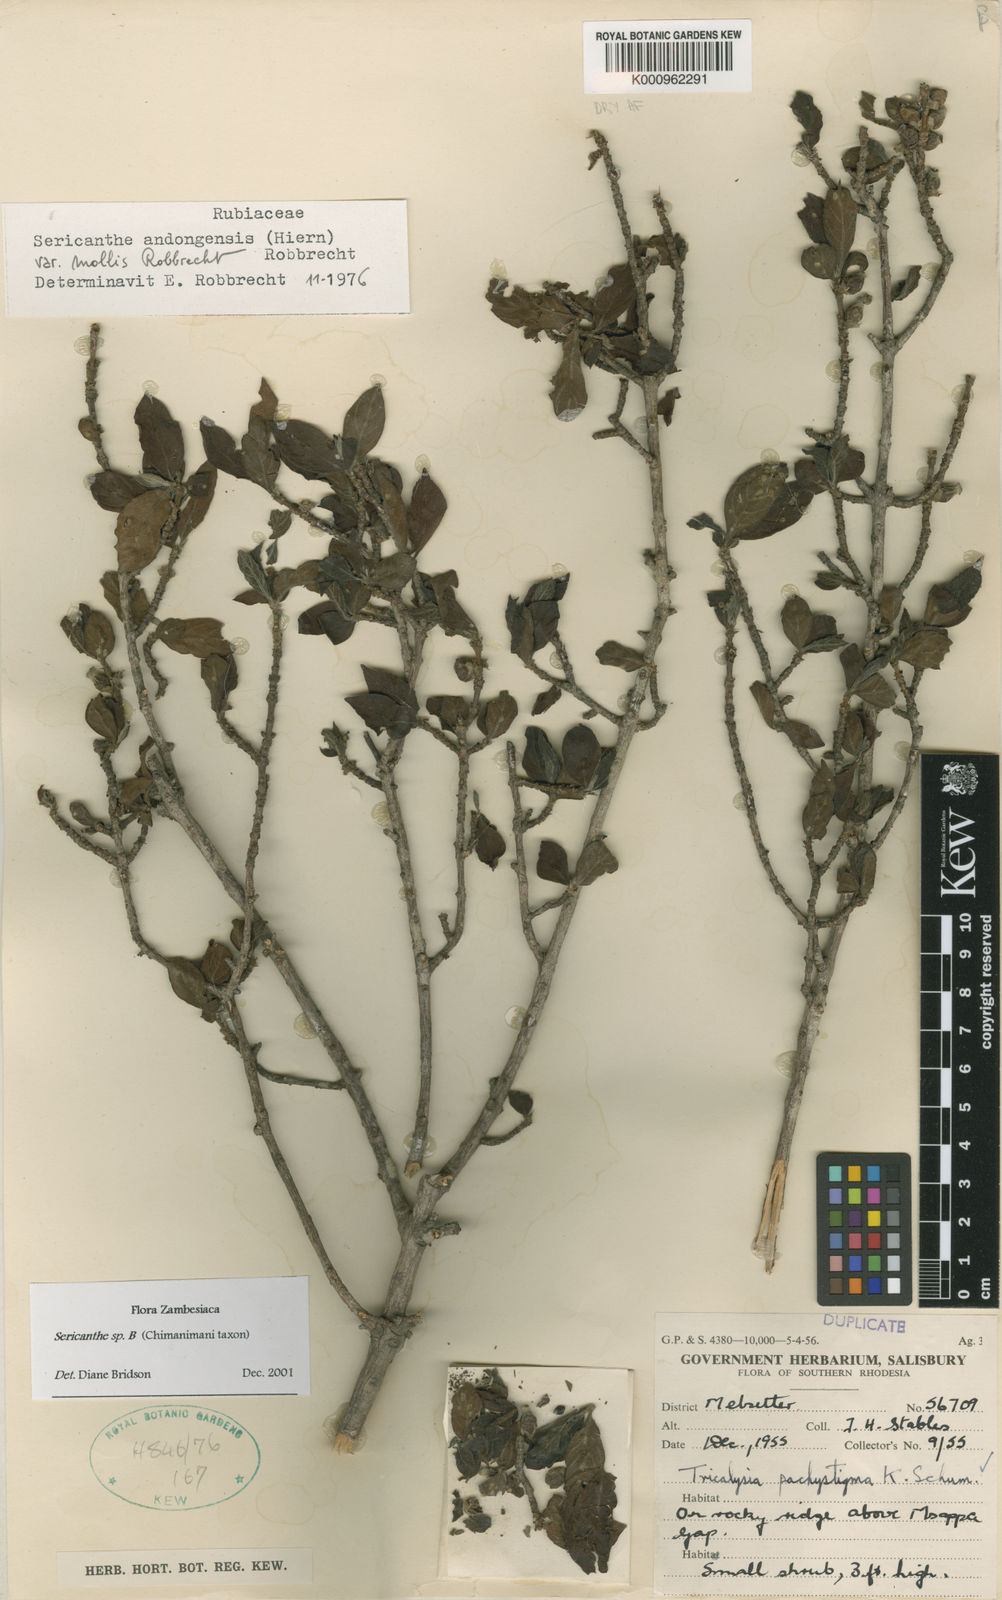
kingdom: Plantae
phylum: Tracheophyta
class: Magnoliopsida
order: Gentianales
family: Rubiaceae
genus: Sericanthe
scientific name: Sericanthe andongensis
